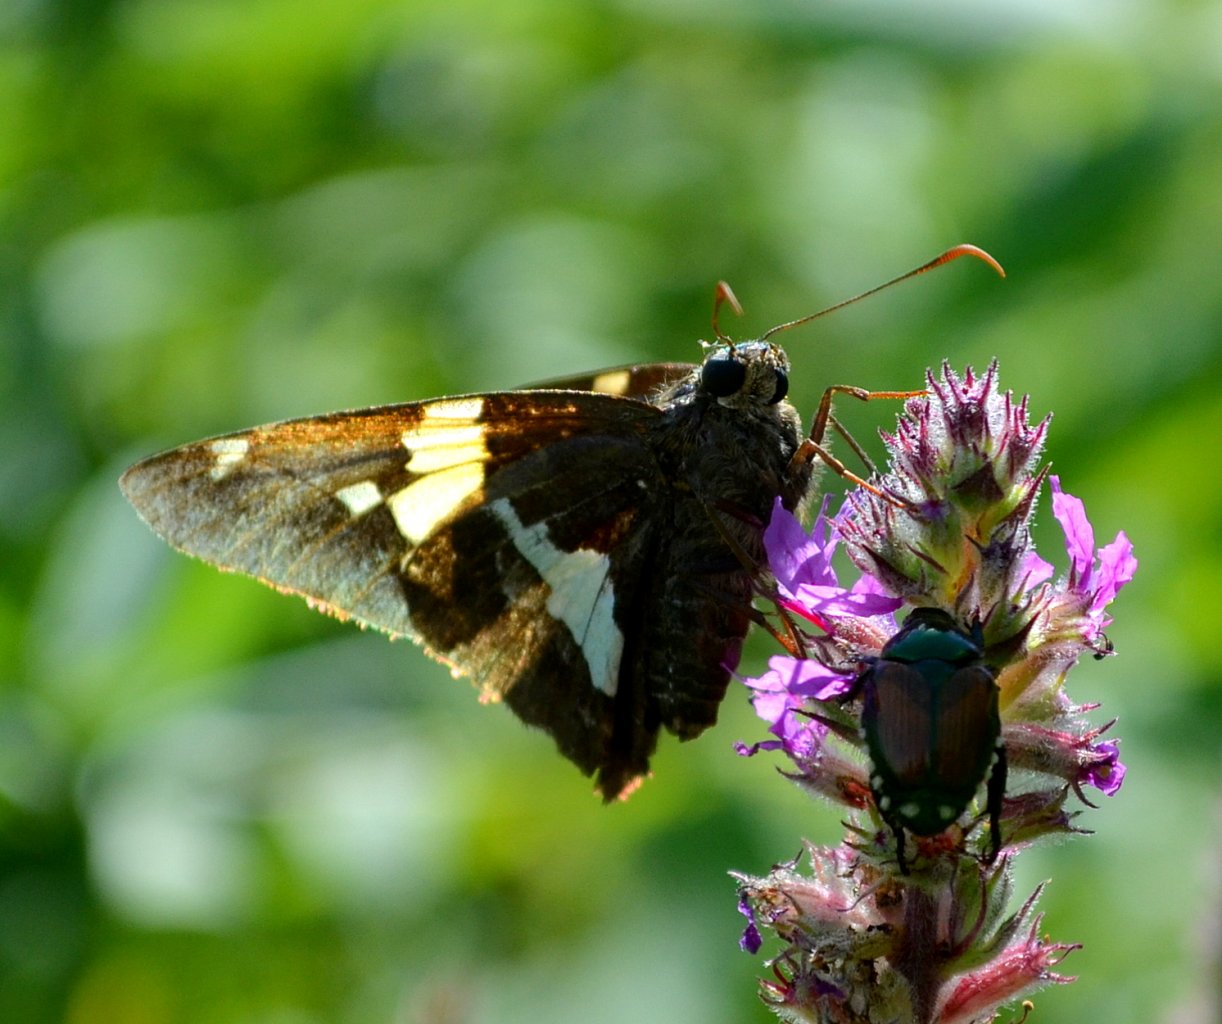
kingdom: Animalia
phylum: Arthropoda
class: Insecta
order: Lepidoptera
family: Hesperiidae
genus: Epargyreus
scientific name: Epargyreus clarus
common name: Silver-spotted Skipper
